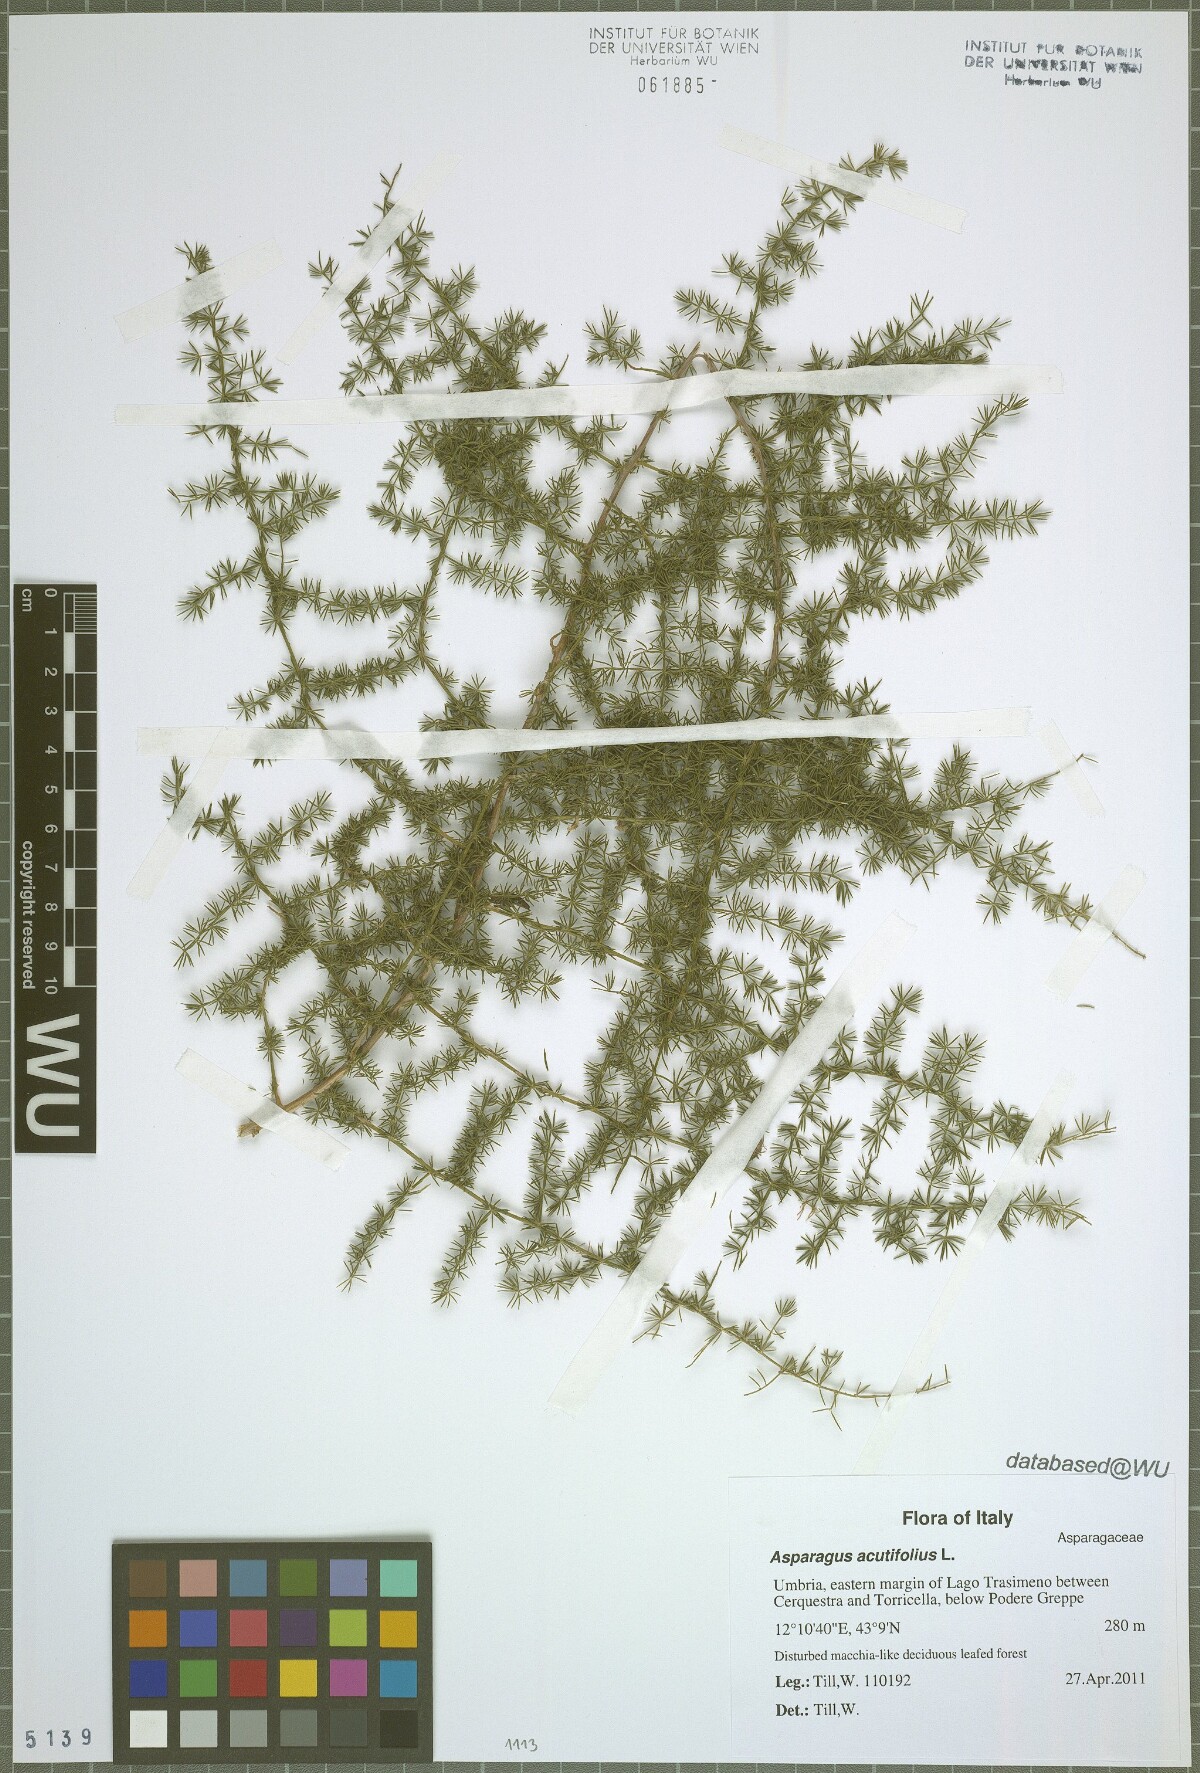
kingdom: Plantae
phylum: Tracheophyta
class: Liliopsida
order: Asparagales
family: Asparagaceae
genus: Asparagus
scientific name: Asparagus acutifolius
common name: Wild asparagus
